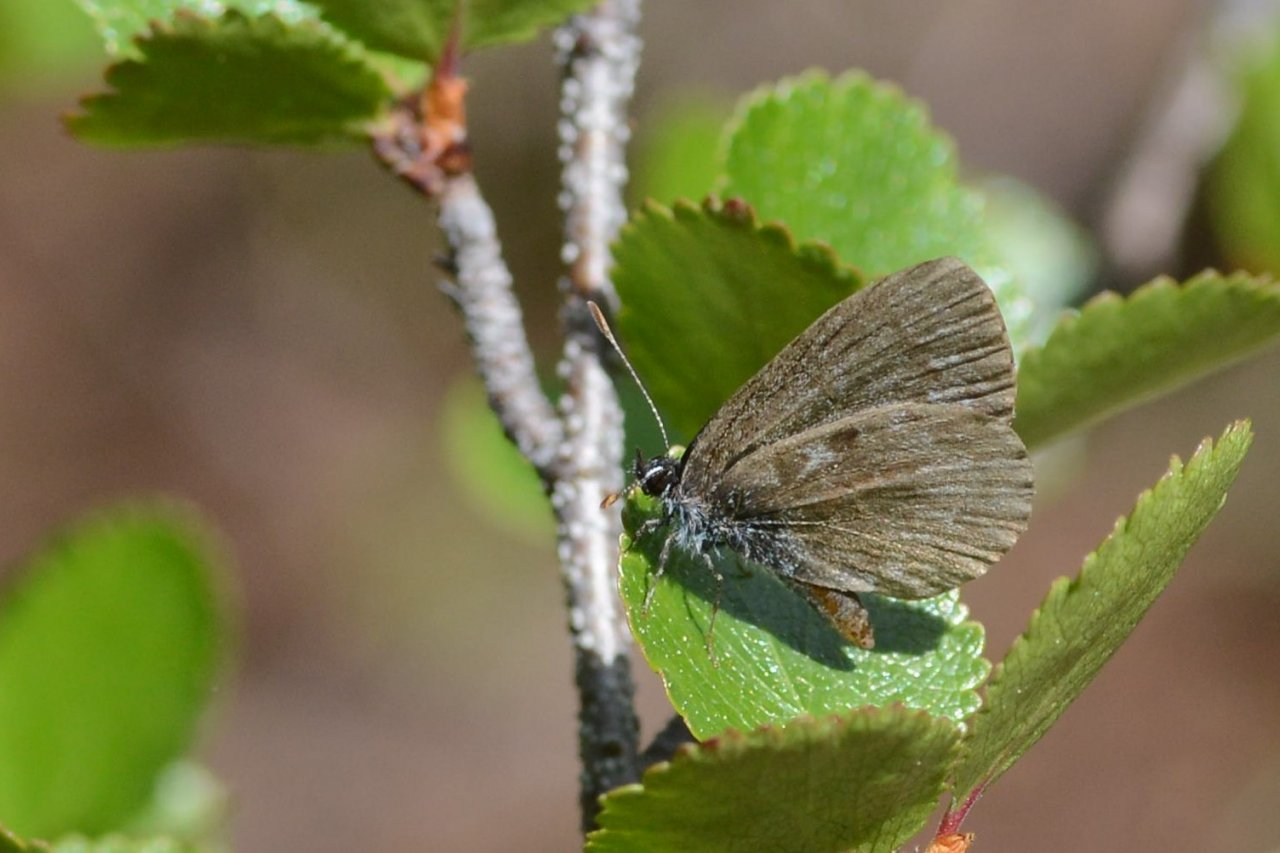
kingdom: Animalia
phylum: Arthropoda
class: Insecta
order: Lepidoptera
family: Lycaenidae
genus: Celastrina
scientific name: Celastrina lucia
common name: Northern Spring Azure
